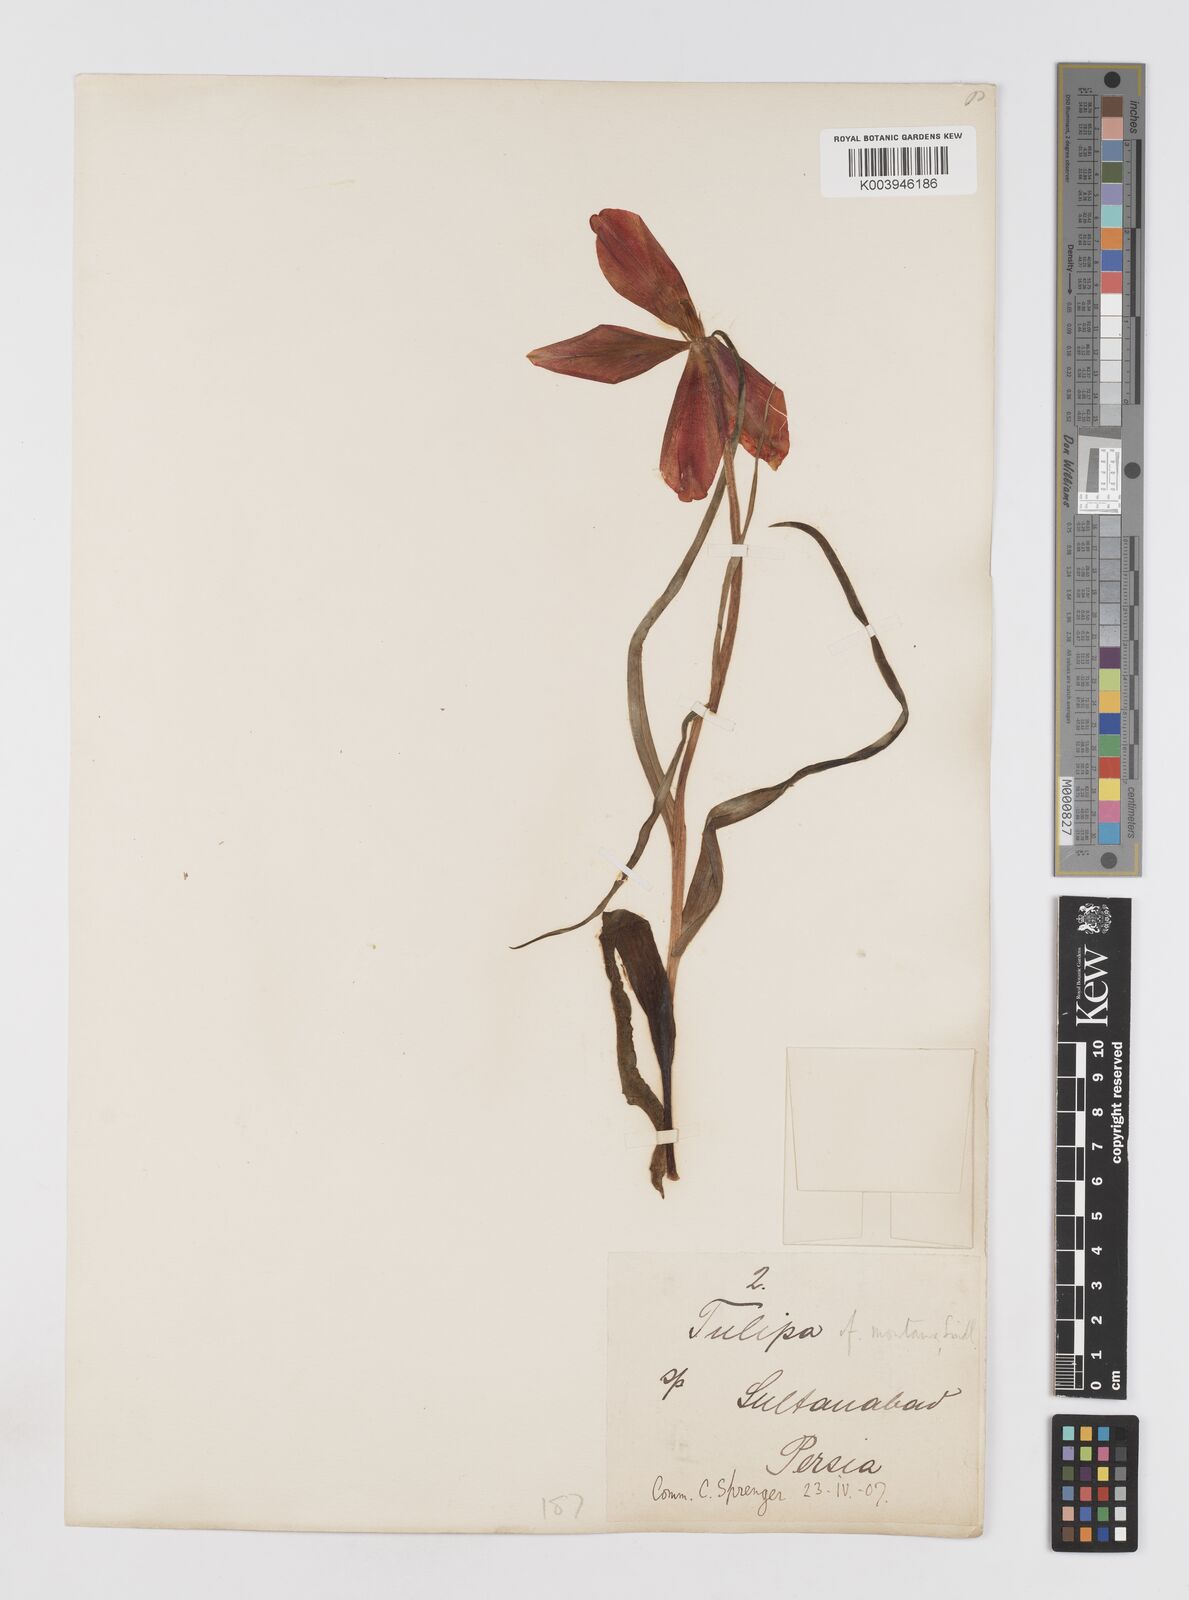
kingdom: Plantae
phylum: Tracheophyta
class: Liliopsida
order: Liliales
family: Liliaceae
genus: Tulipa
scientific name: Tulipa montana
